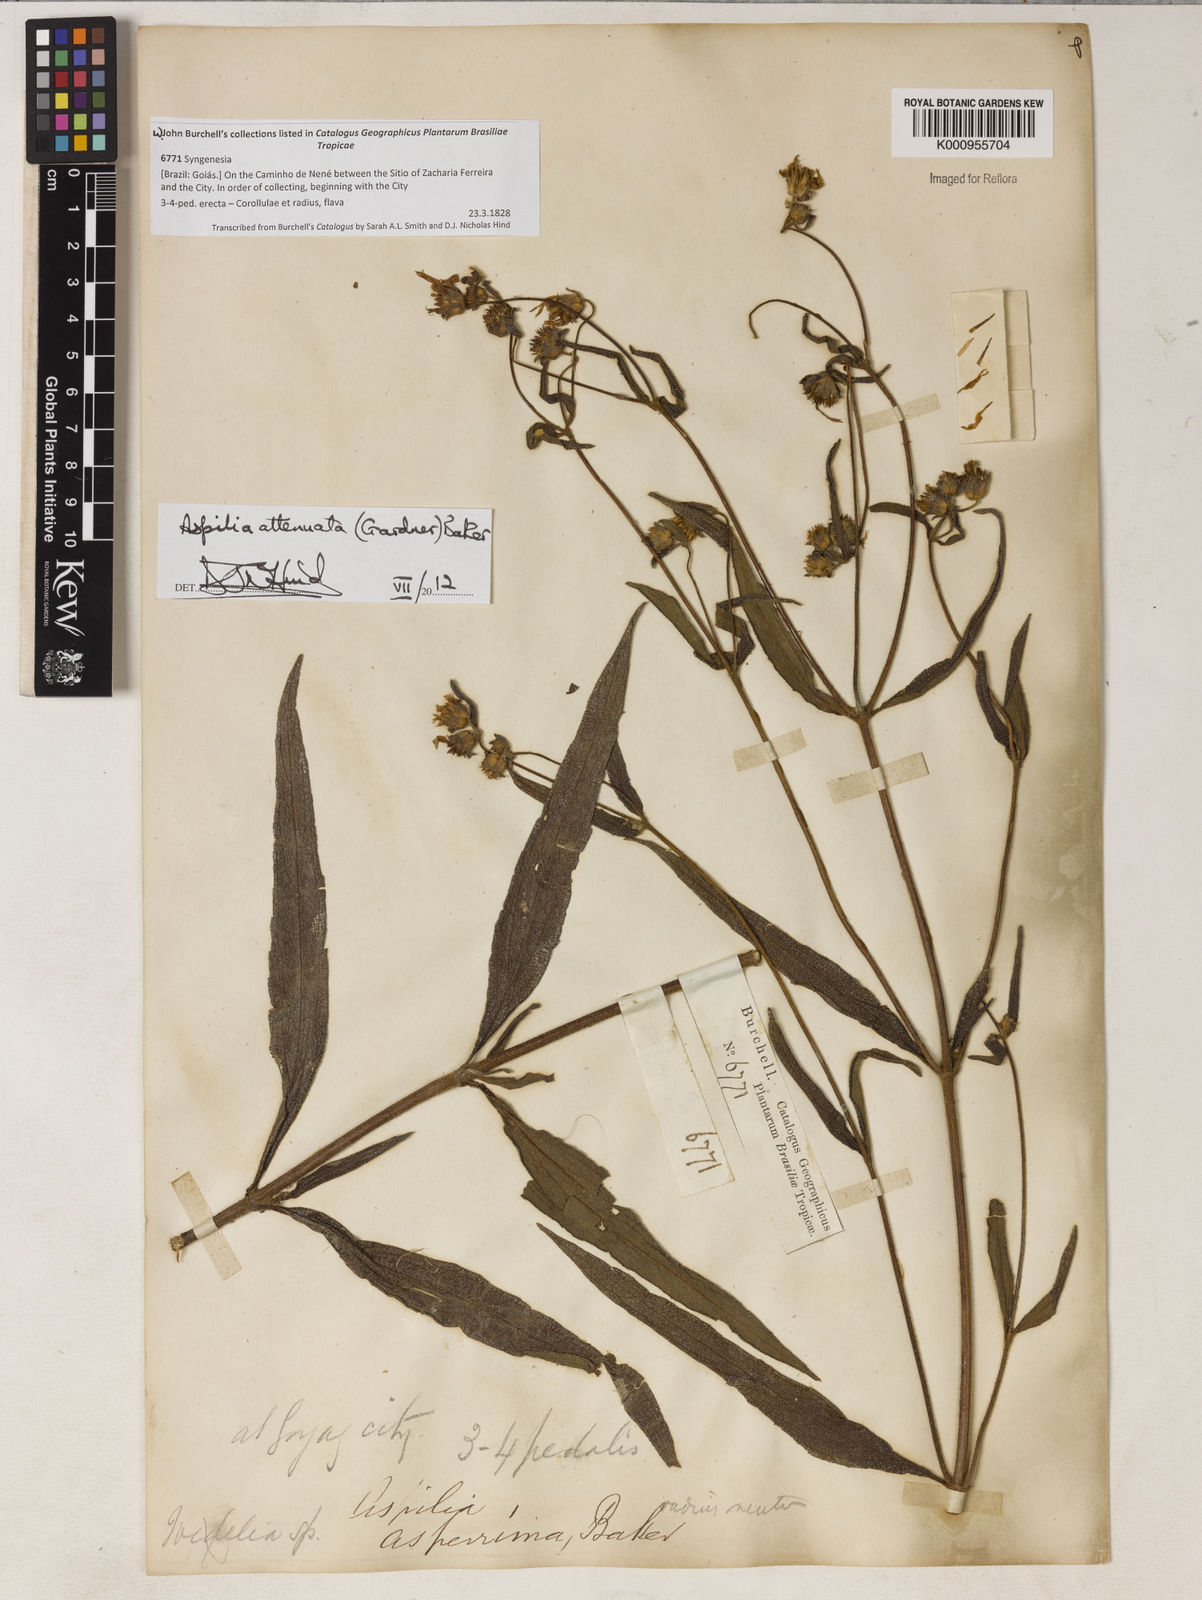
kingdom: Plantae
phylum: Tracheophyta
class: Magnoliopsida
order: Asterales
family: Asteraceae
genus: Wedelia
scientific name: Wedelia attenuata
